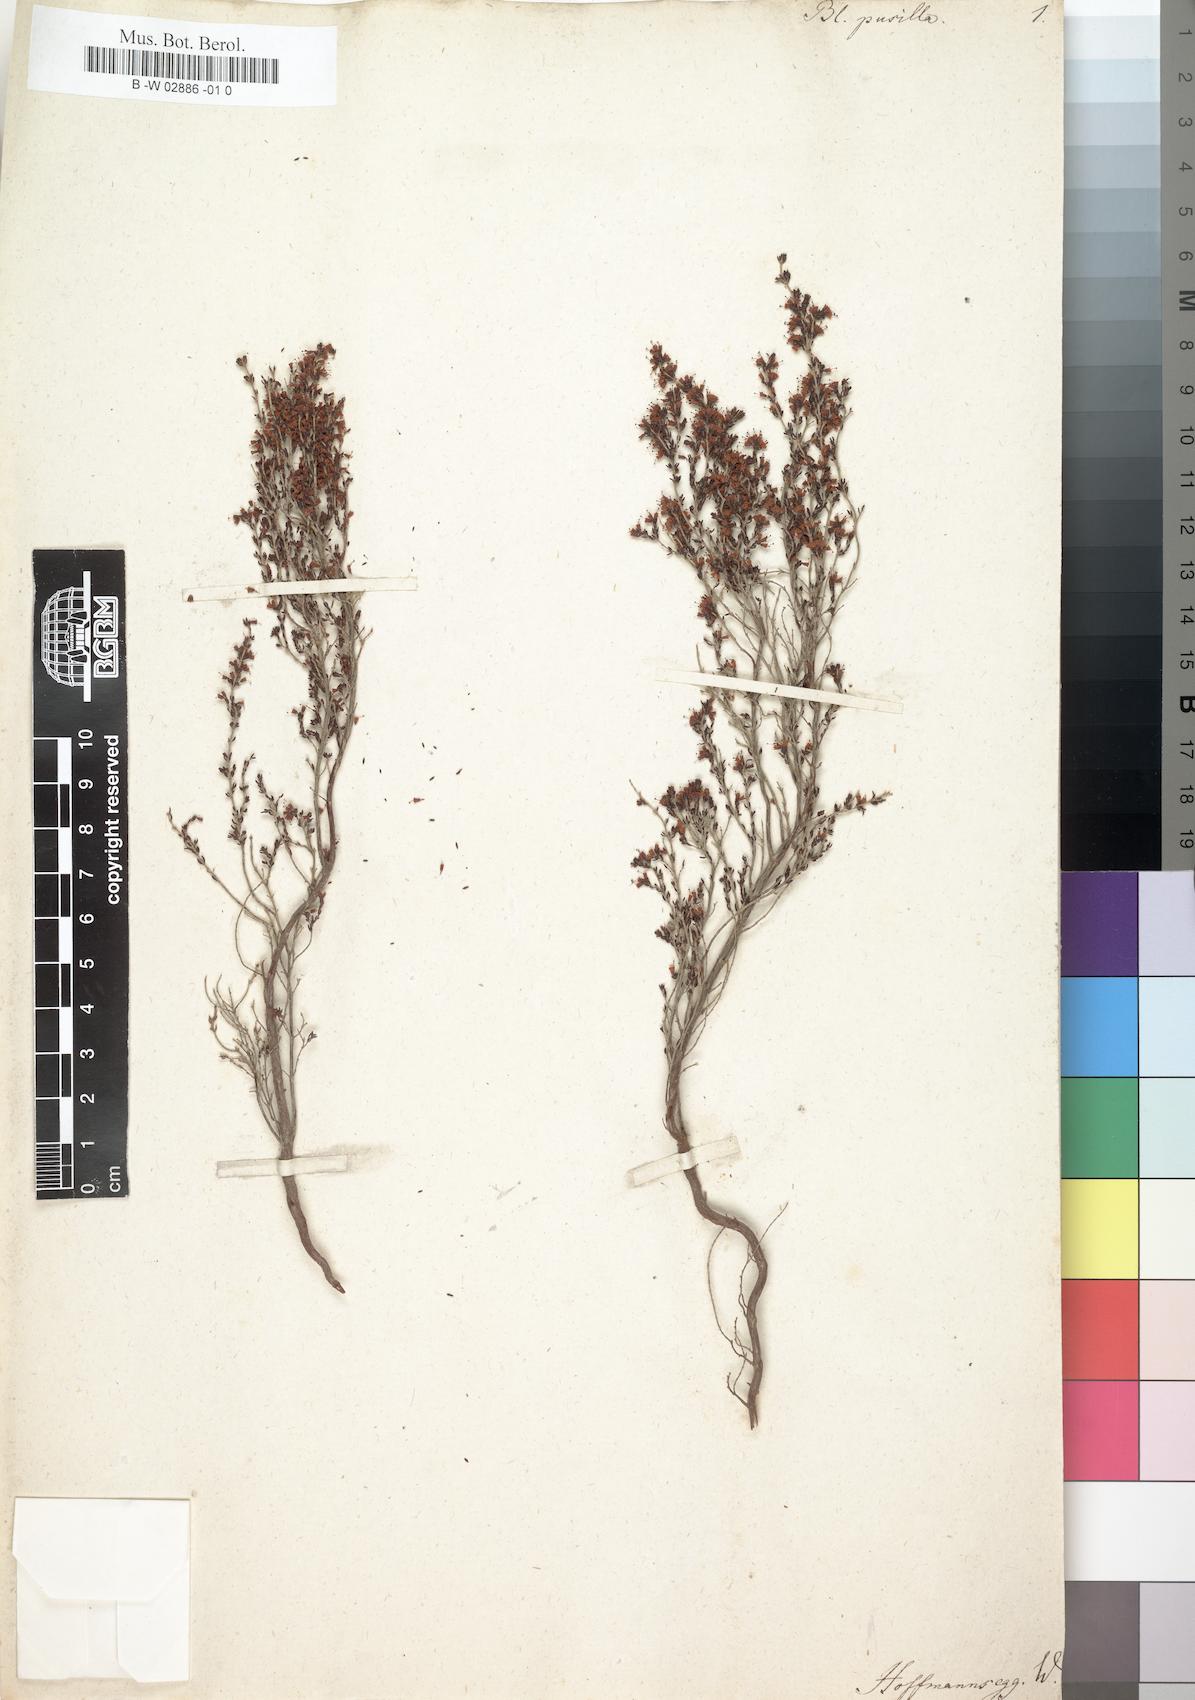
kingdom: Plantae
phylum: Tracheophyta
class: Magnoliopsida
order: Ericales
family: Ericaceae
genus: Erica
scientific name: Erica
